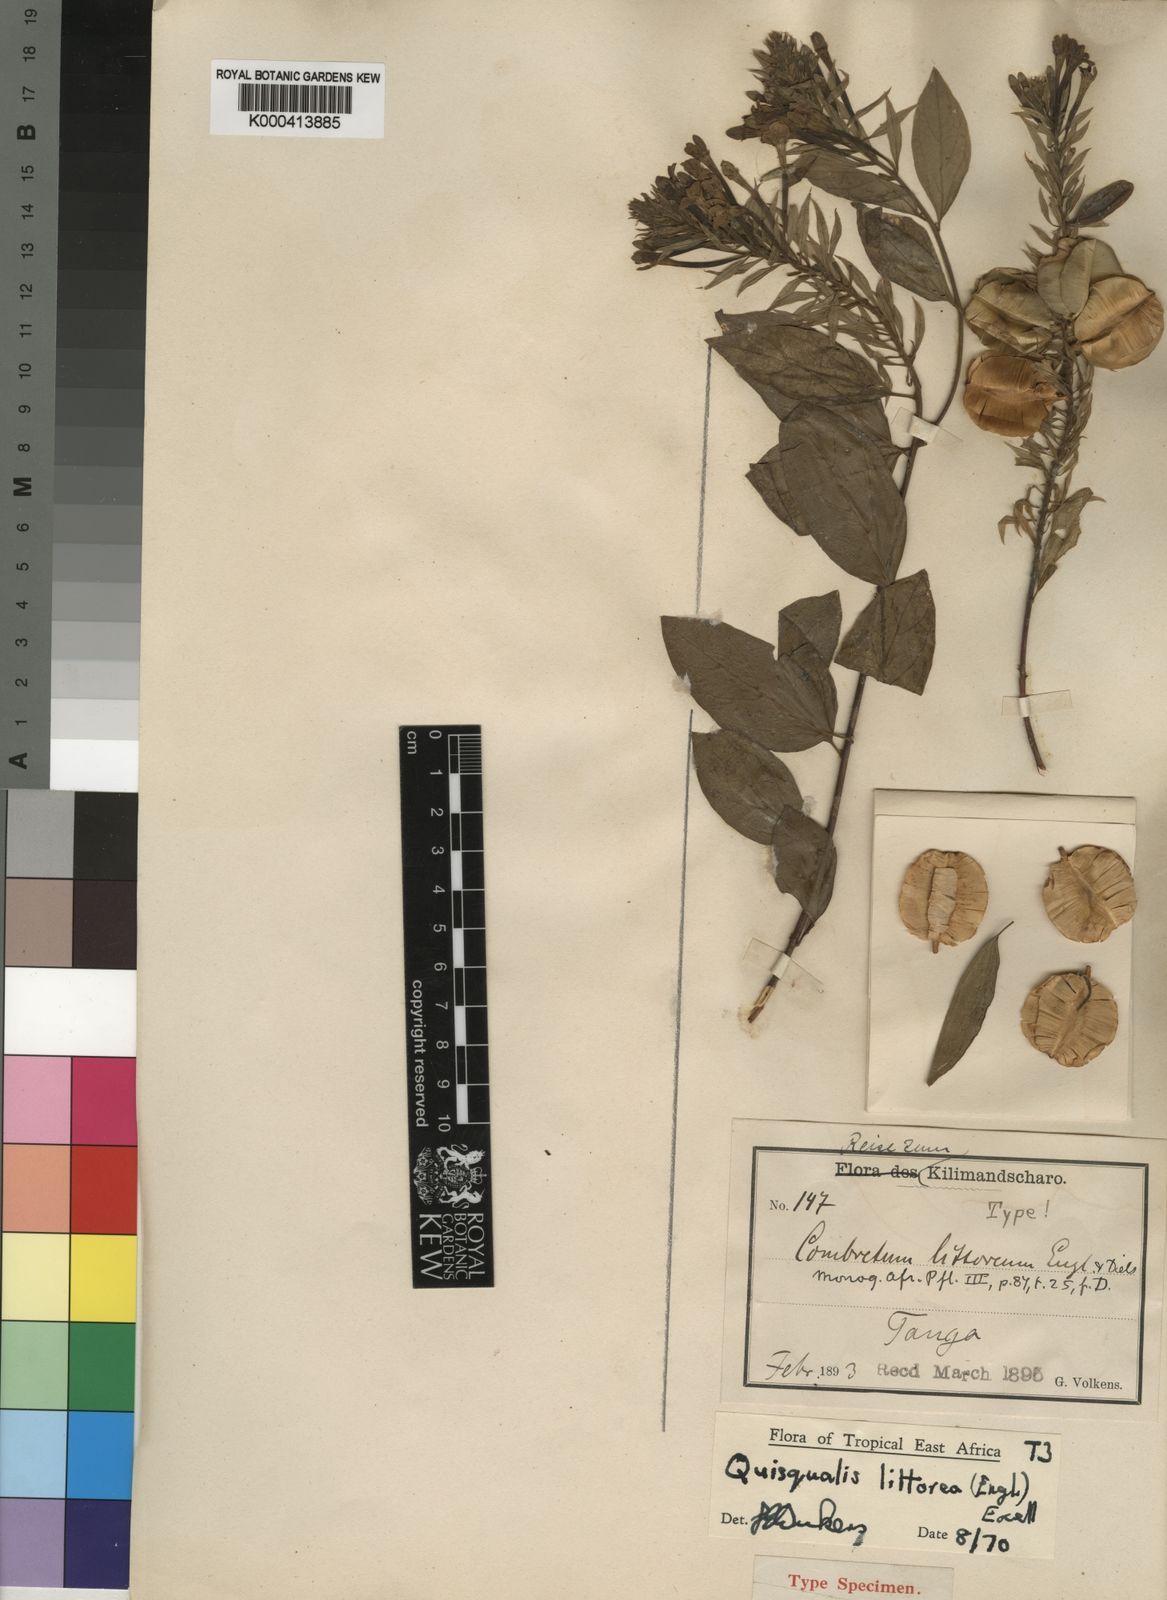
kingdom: Plantae
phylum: Tracheophyta
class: Magnoliopsida
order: Myrtales
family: Combretaceae
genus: Combretum
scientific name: Combretum falcatum
